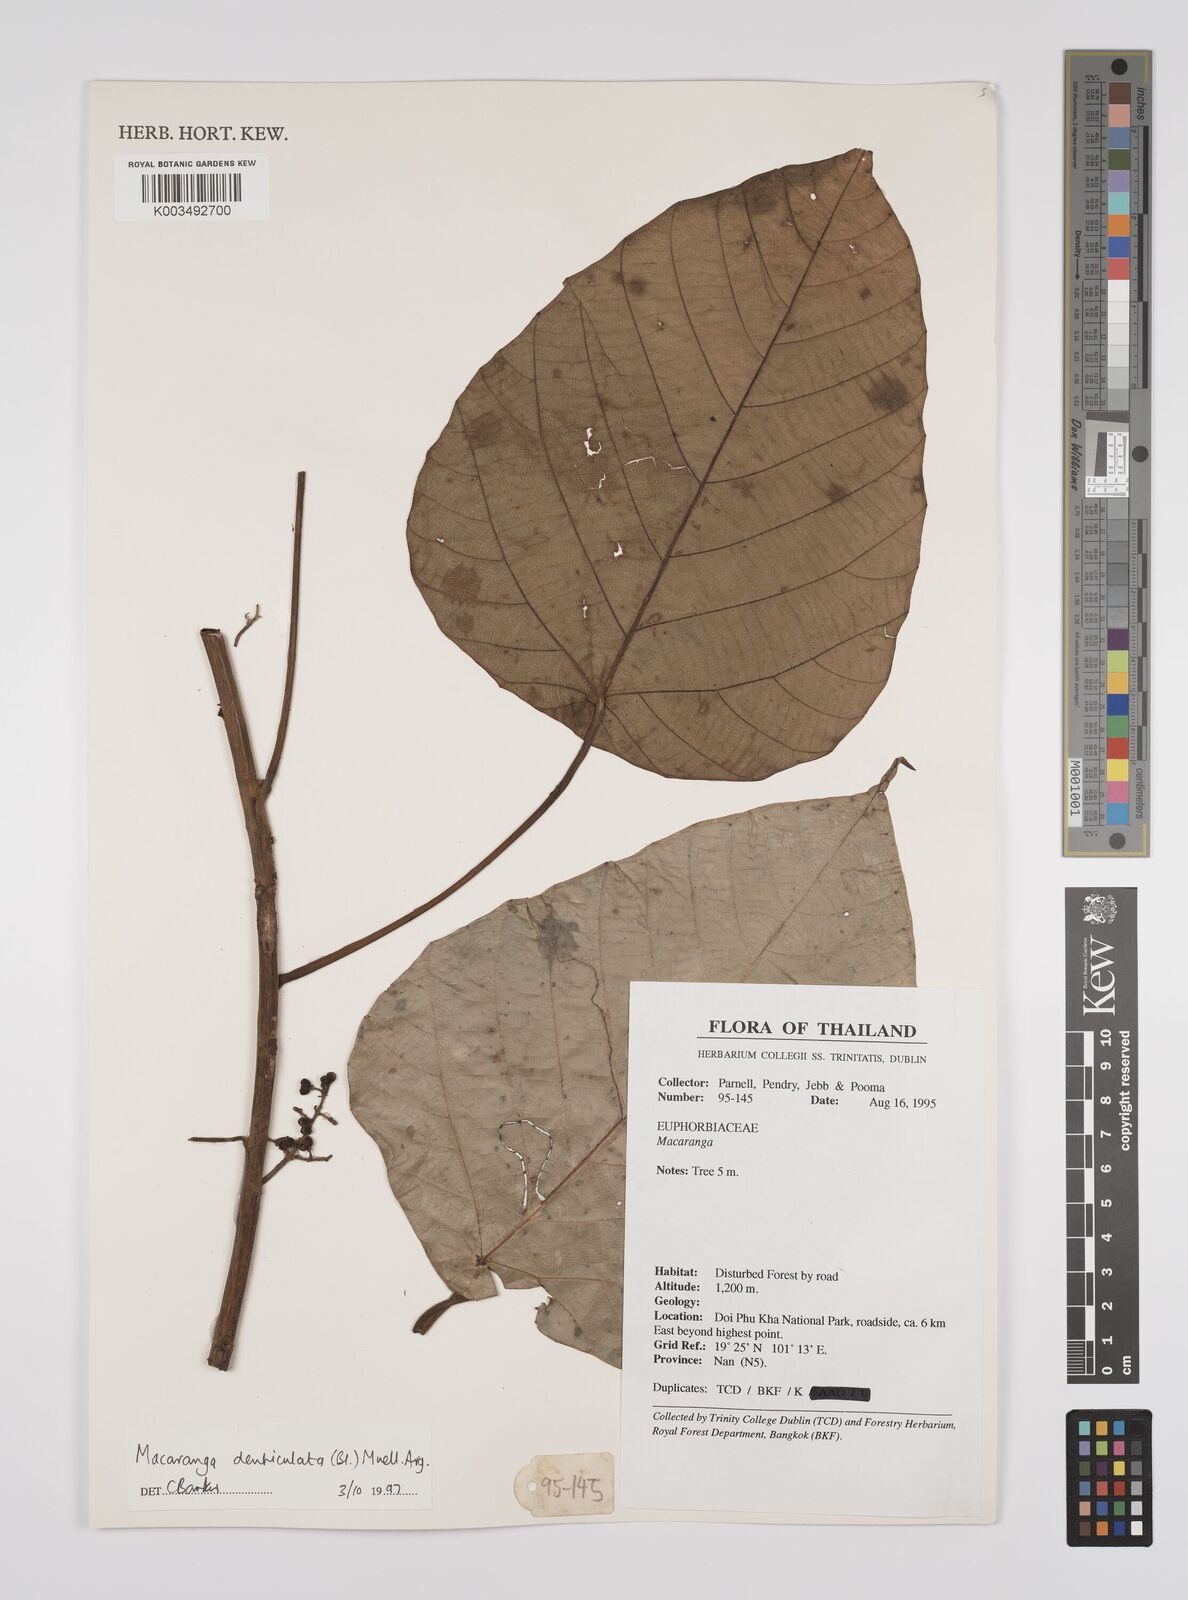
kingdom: Plantae
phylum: Tracheophyta
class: Magnoliopsida
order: Malpighiales
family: Euphorbiaceae
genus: Macaranga
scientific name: Macaranga denticulata
